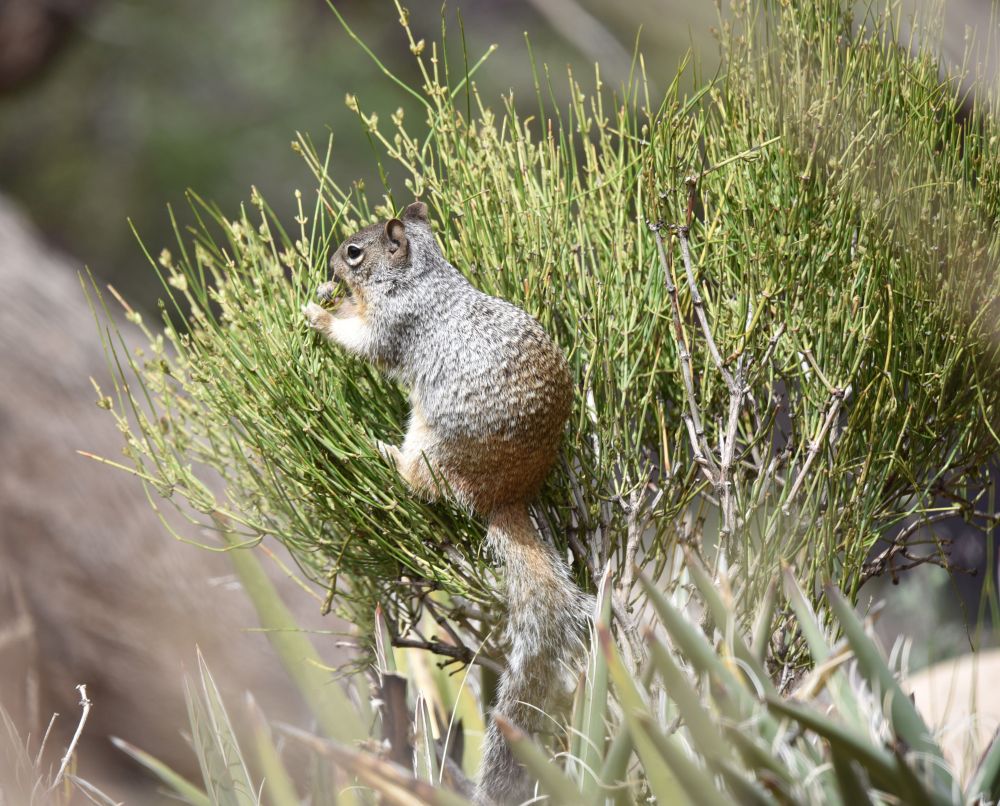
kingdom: Animalia
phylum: Chordata
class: Mammalia
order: Rodentia
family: Sciuridae
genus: Otospermophilus
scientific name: Otospermophilus variegatus
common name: Rock squirrel
